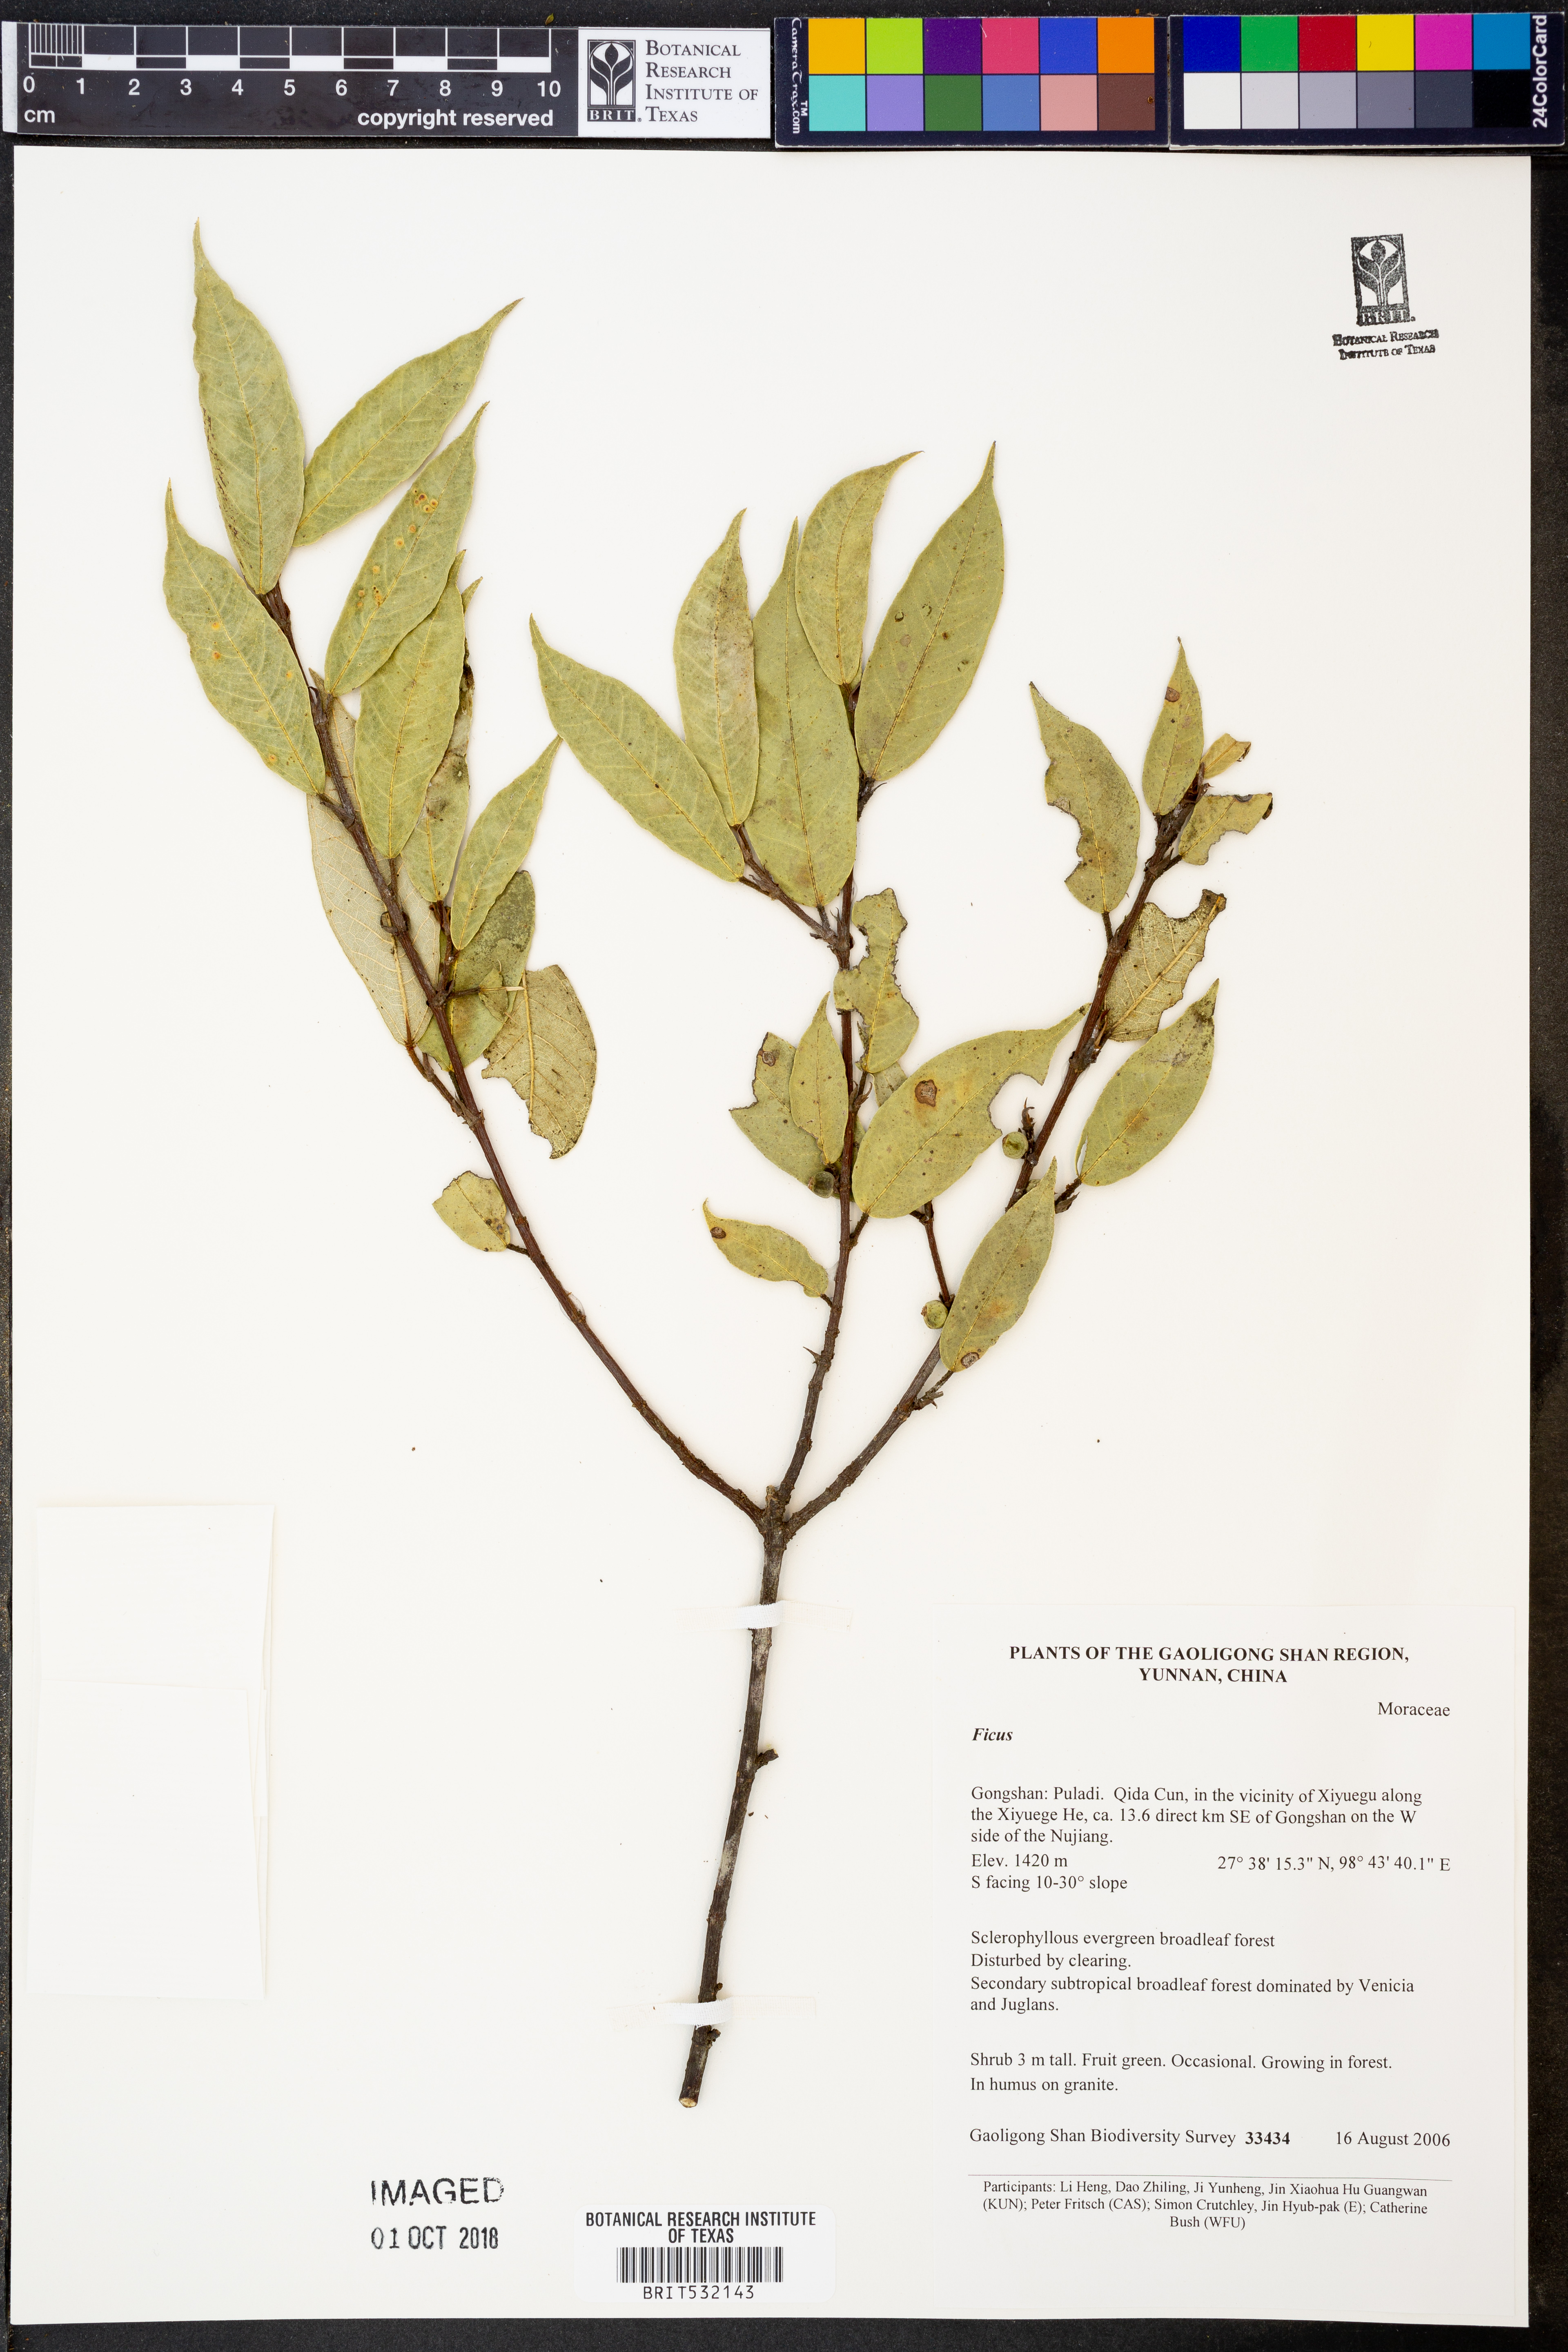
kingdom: Plantae
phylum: Tracheophyta
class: Magnoliopsida
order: Rosales
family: Moraceae
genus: Ficus
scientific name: Ficus
